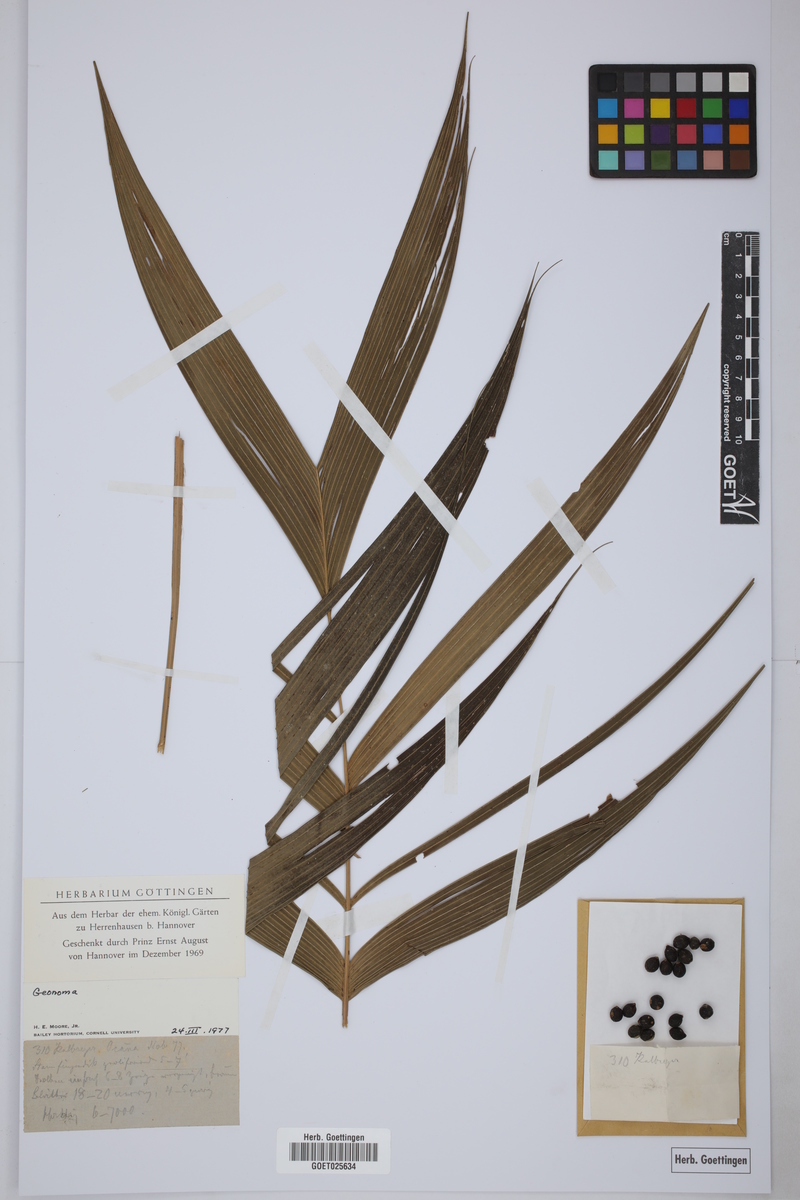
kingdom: Plantae
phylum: Tracheophyta
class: Liliopsida
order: Arecales
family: Arecaceae
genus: Geonoma
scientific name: Geonoma
